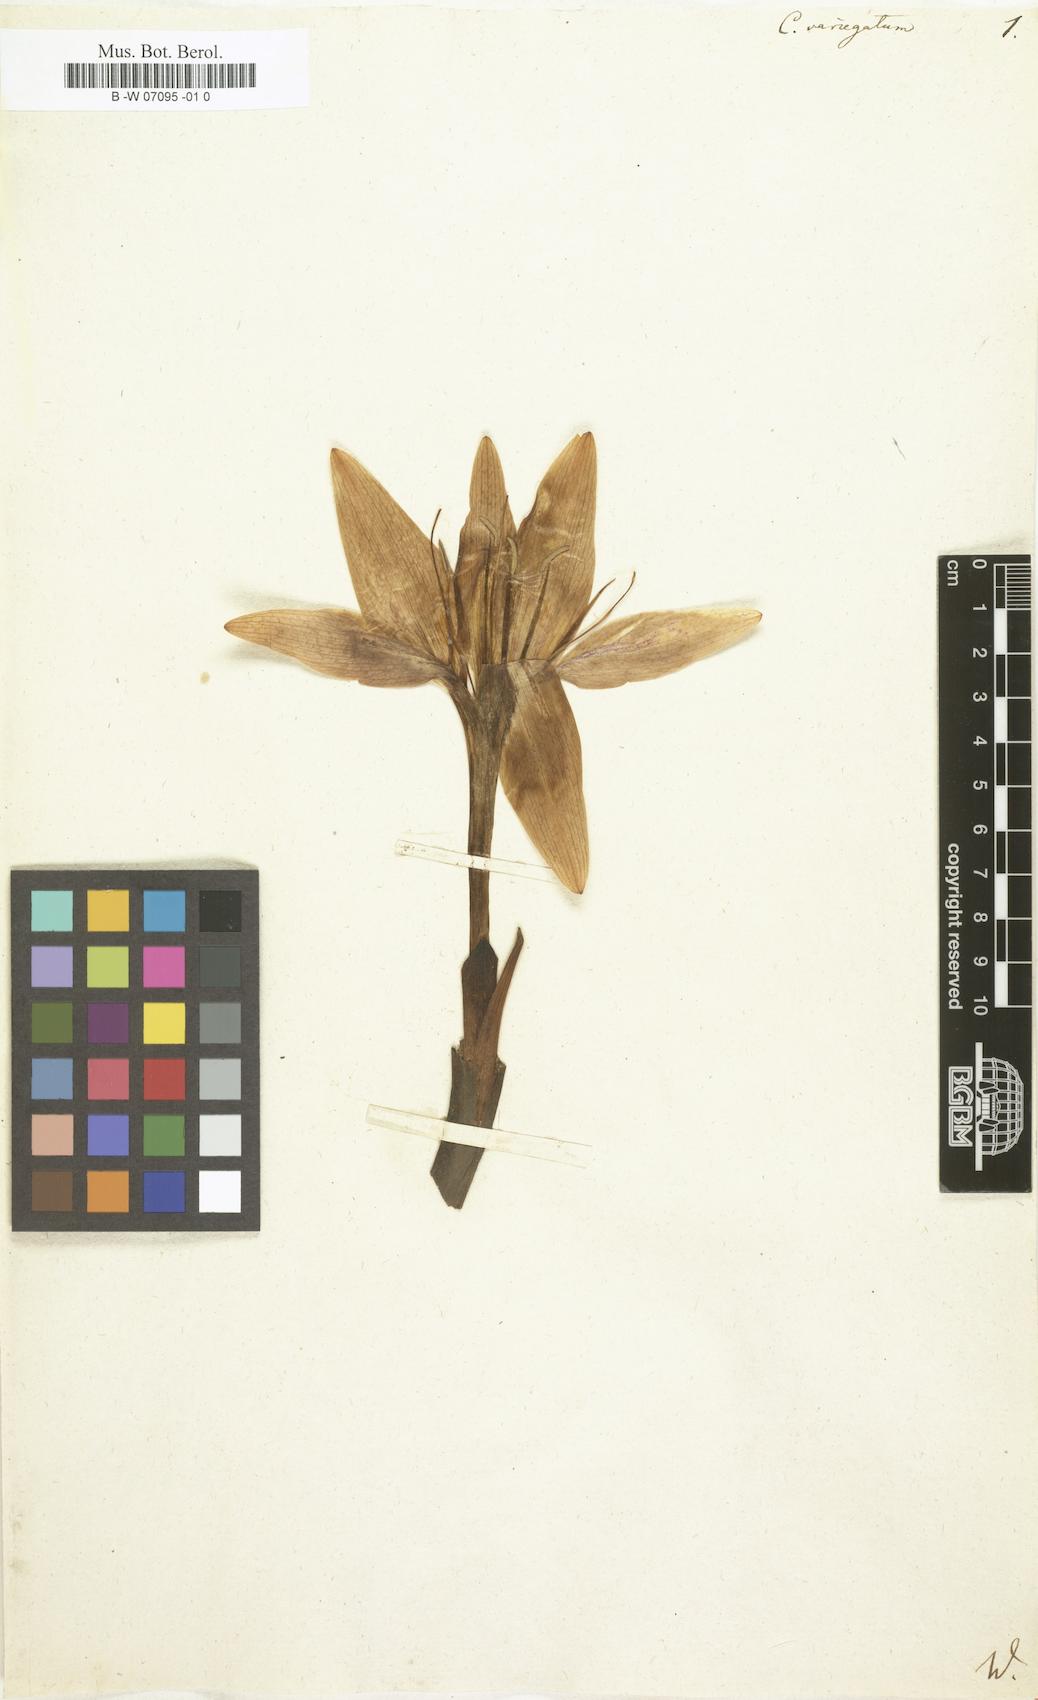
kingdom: Plantae
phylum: Tracheophyta
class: Liliopsida
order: Liliales
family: Colchicaceae
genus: Colchicum
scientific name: Colchicum variegatum
